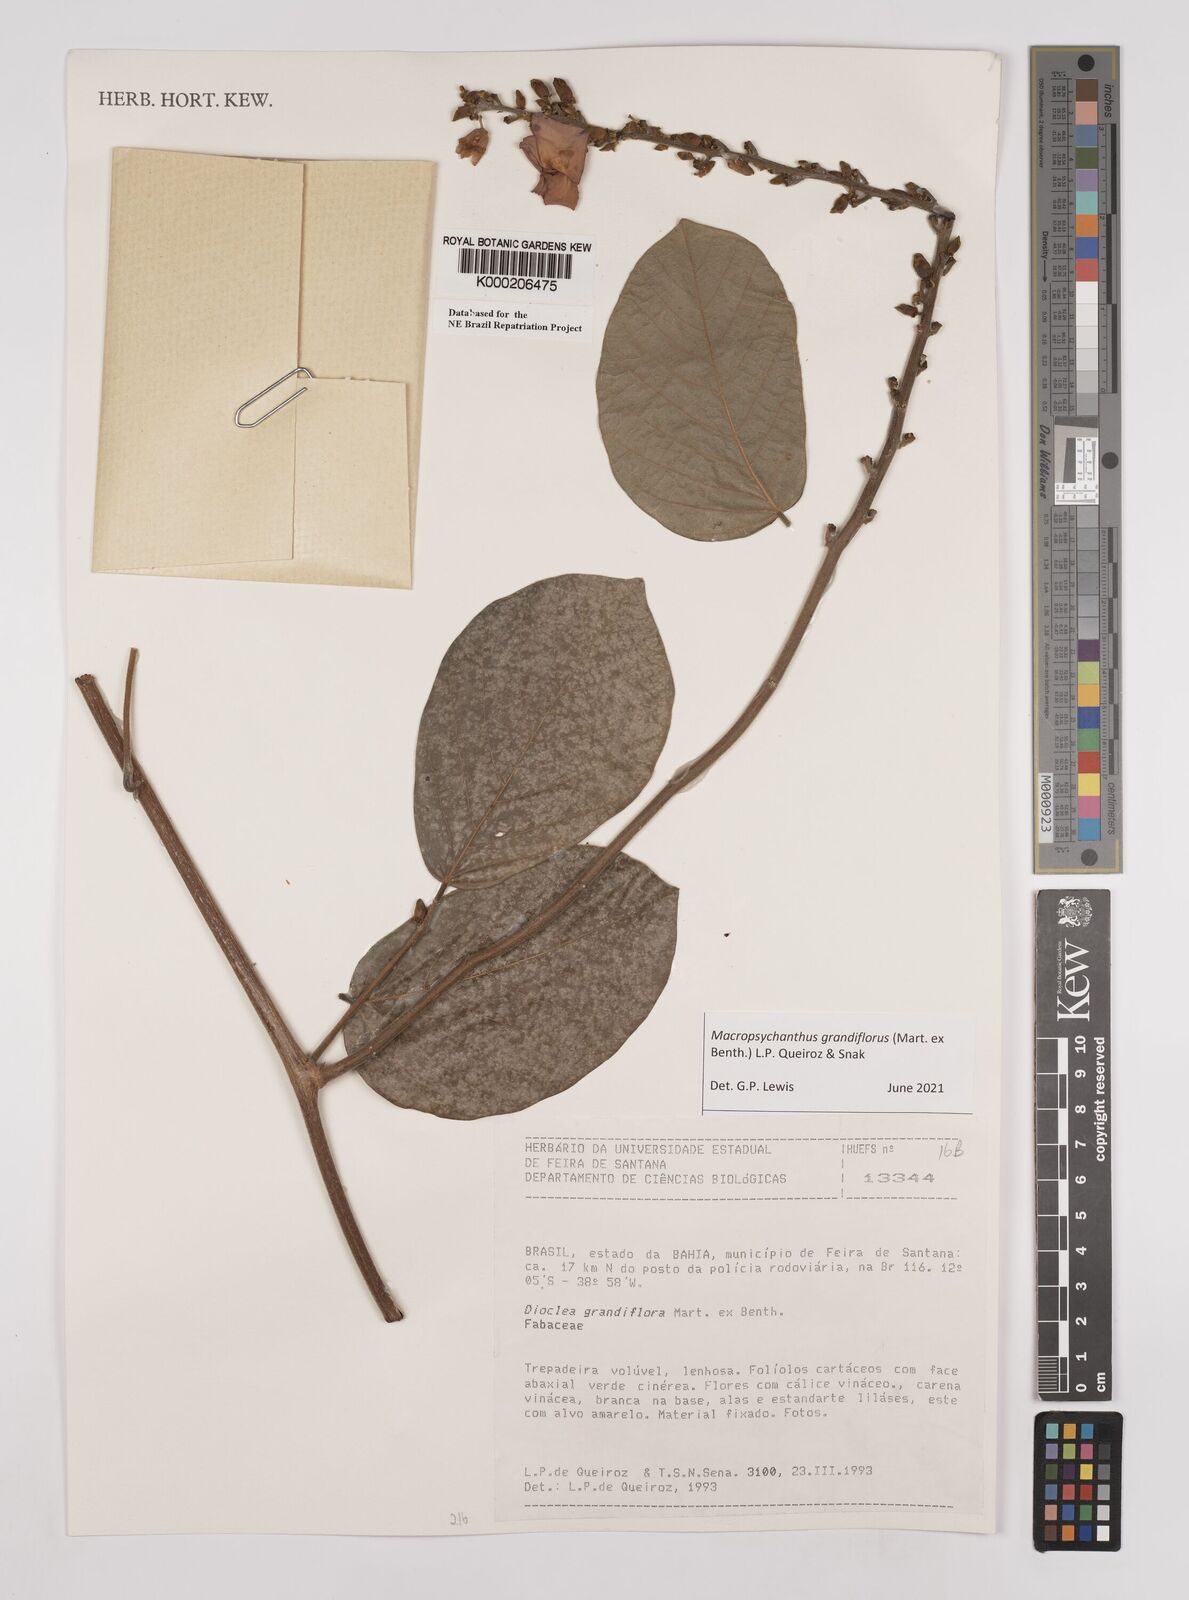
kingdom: Plantae
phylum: Tracheophyta
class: Magnoliopsida
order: Fabales
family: Fabaceae
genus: Macropsychanthus
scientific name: Macropsychanthus grandiflorus
